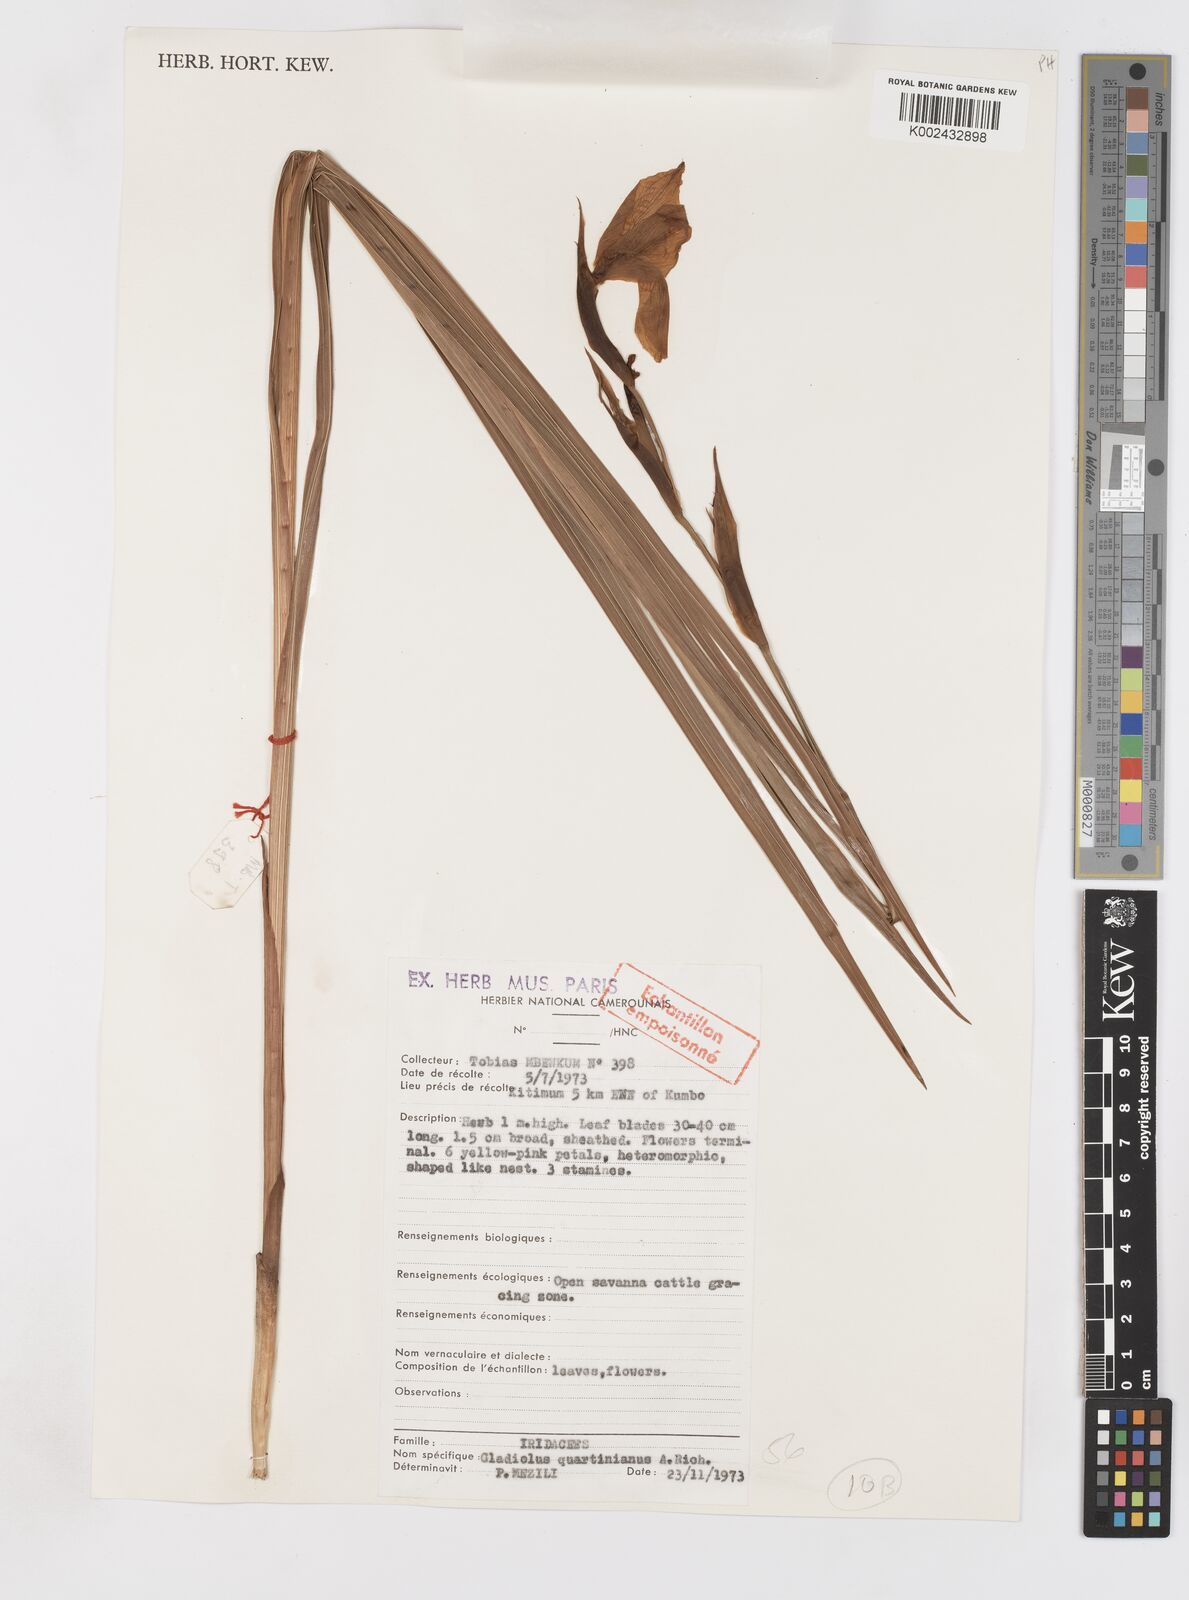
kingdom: Plantae
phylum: Tracheophyta
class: Liliopsida
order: Asparagales
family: Iridaceae
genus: Gladiolus
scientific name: Gladiolus dalenii
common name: Cornflag
